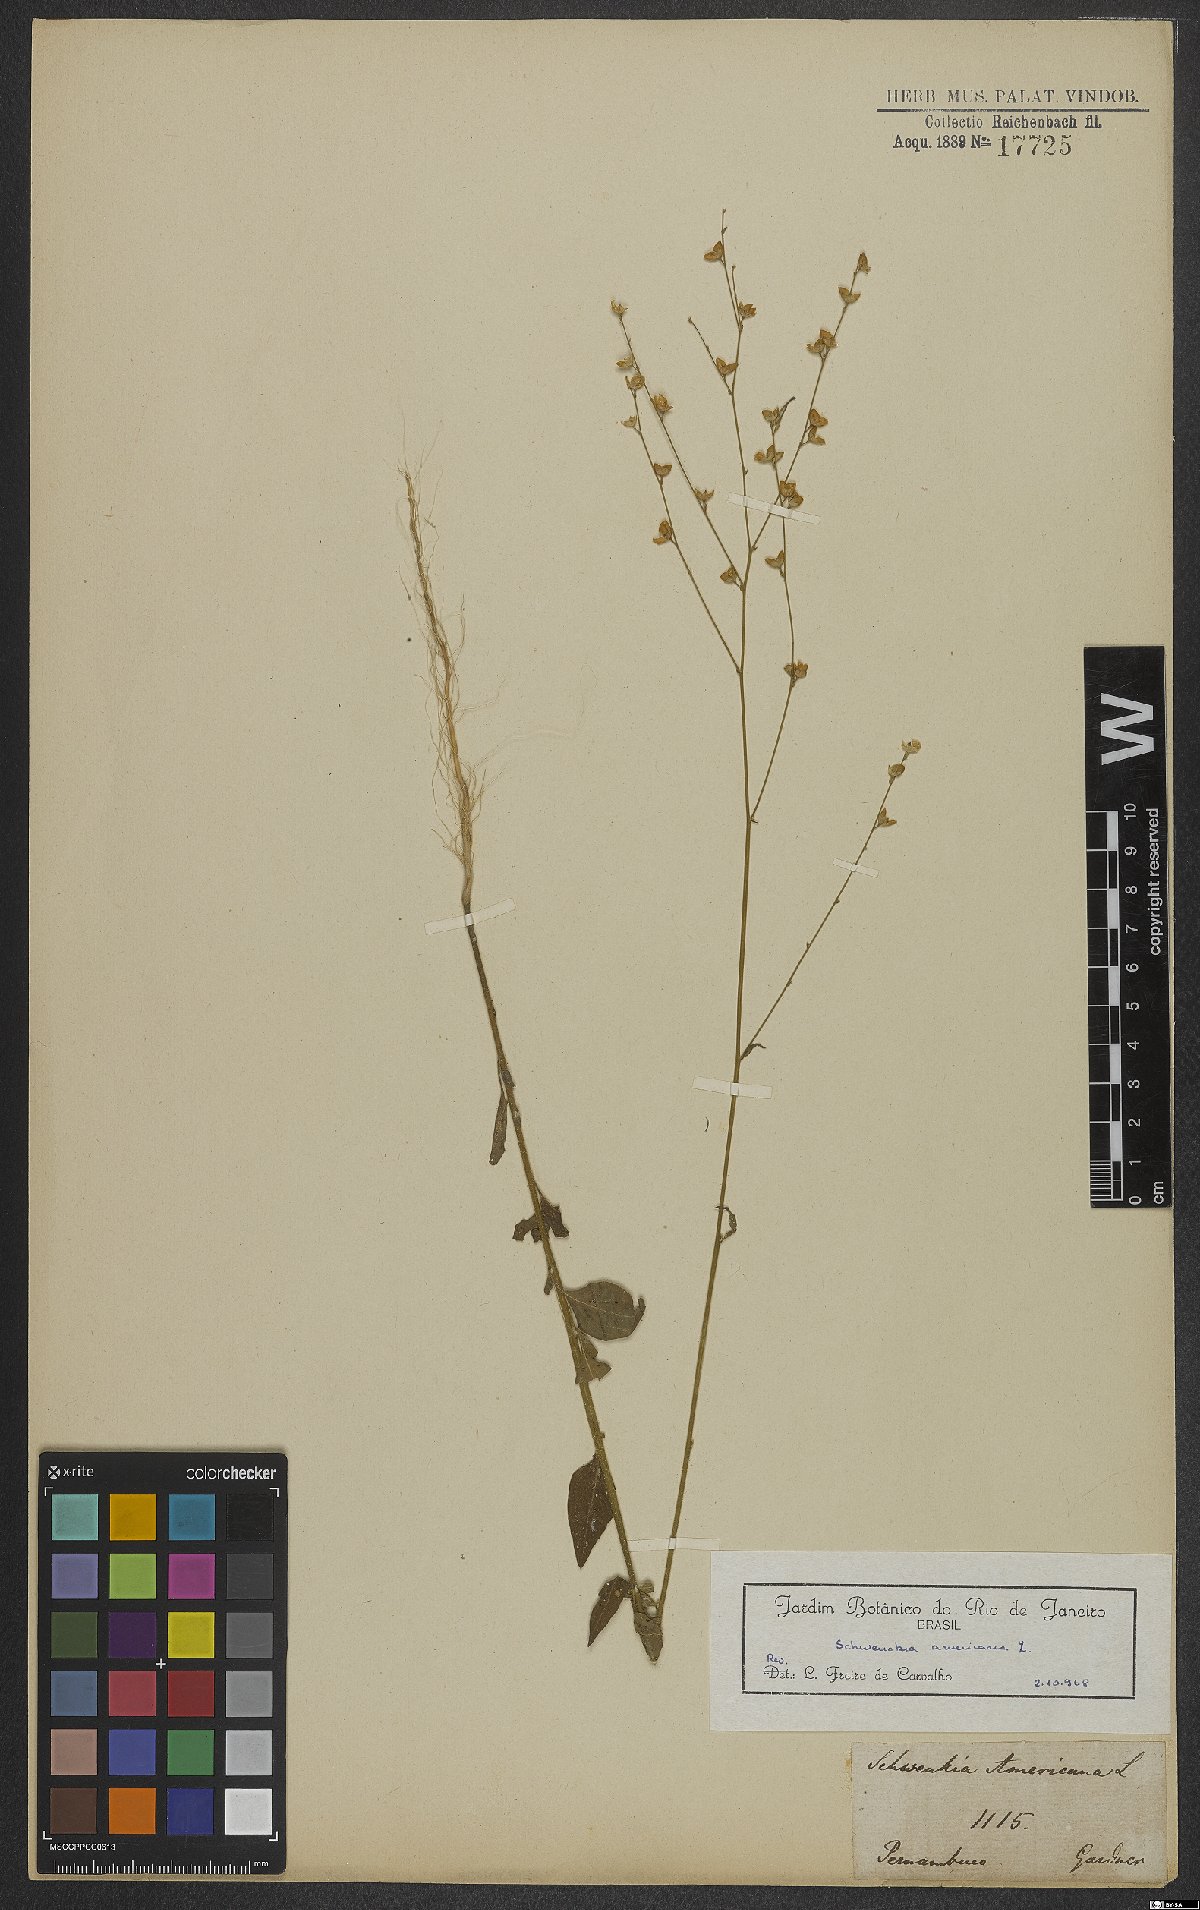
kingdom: Plantae
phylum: Tracheophyta
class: Magnoliopsida
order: Solanales
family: Solanaceae
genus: Schwenckia
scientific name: Schwenckia americana
